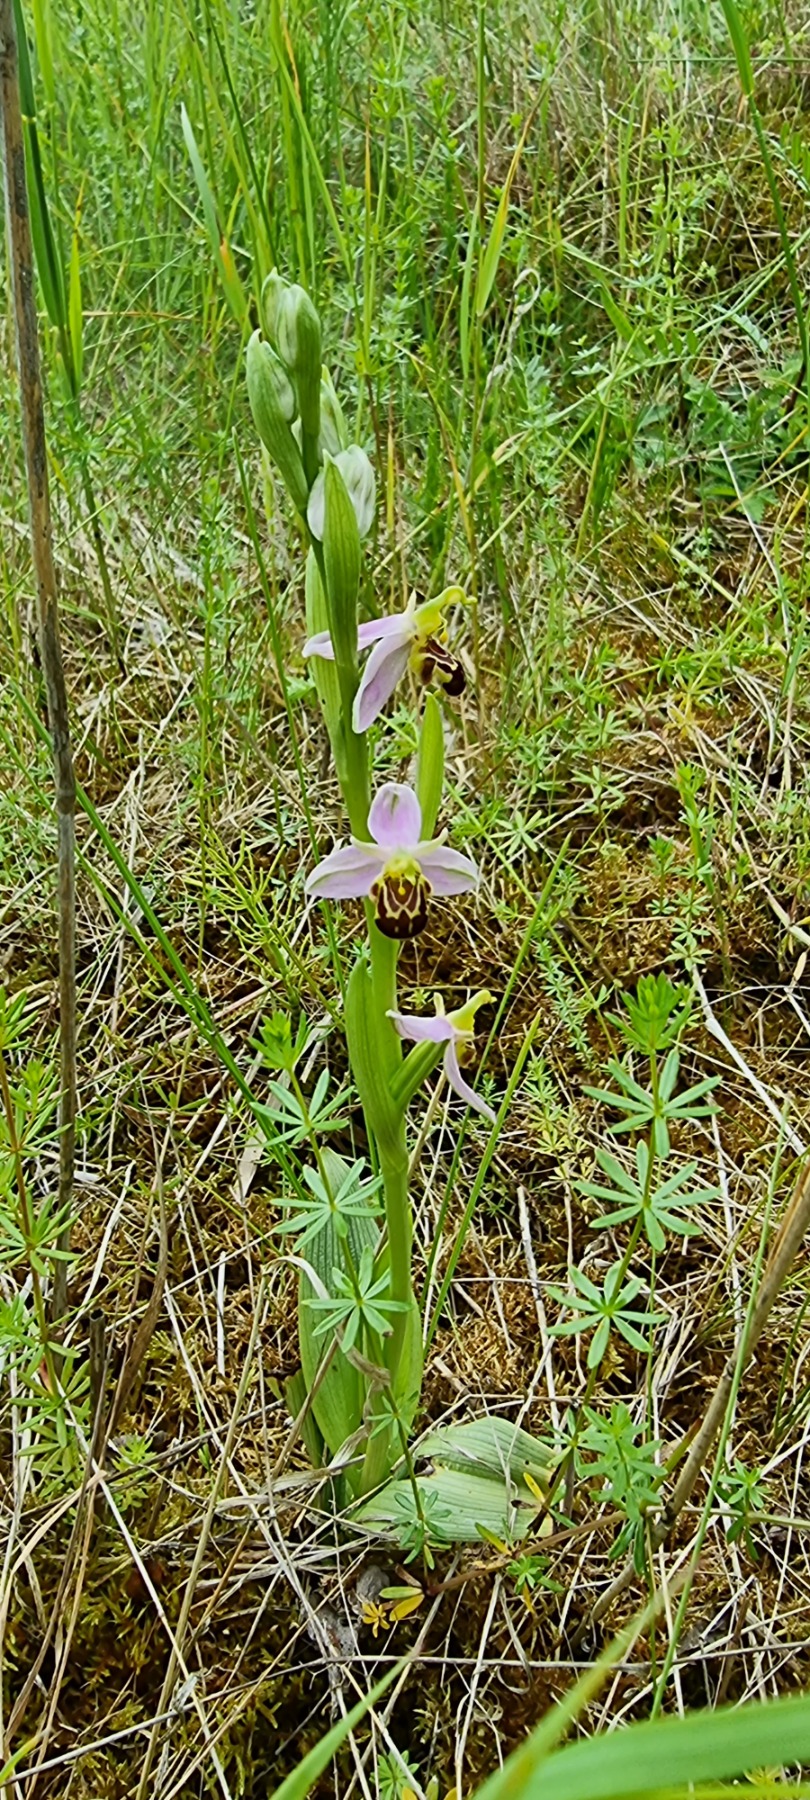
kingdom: Plantae
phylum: Tracheophyta
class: Liliopsida
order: Asparagales
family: Orchidaceae
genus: Ophrys
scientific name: Ophrys apifera
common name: Biblomst
